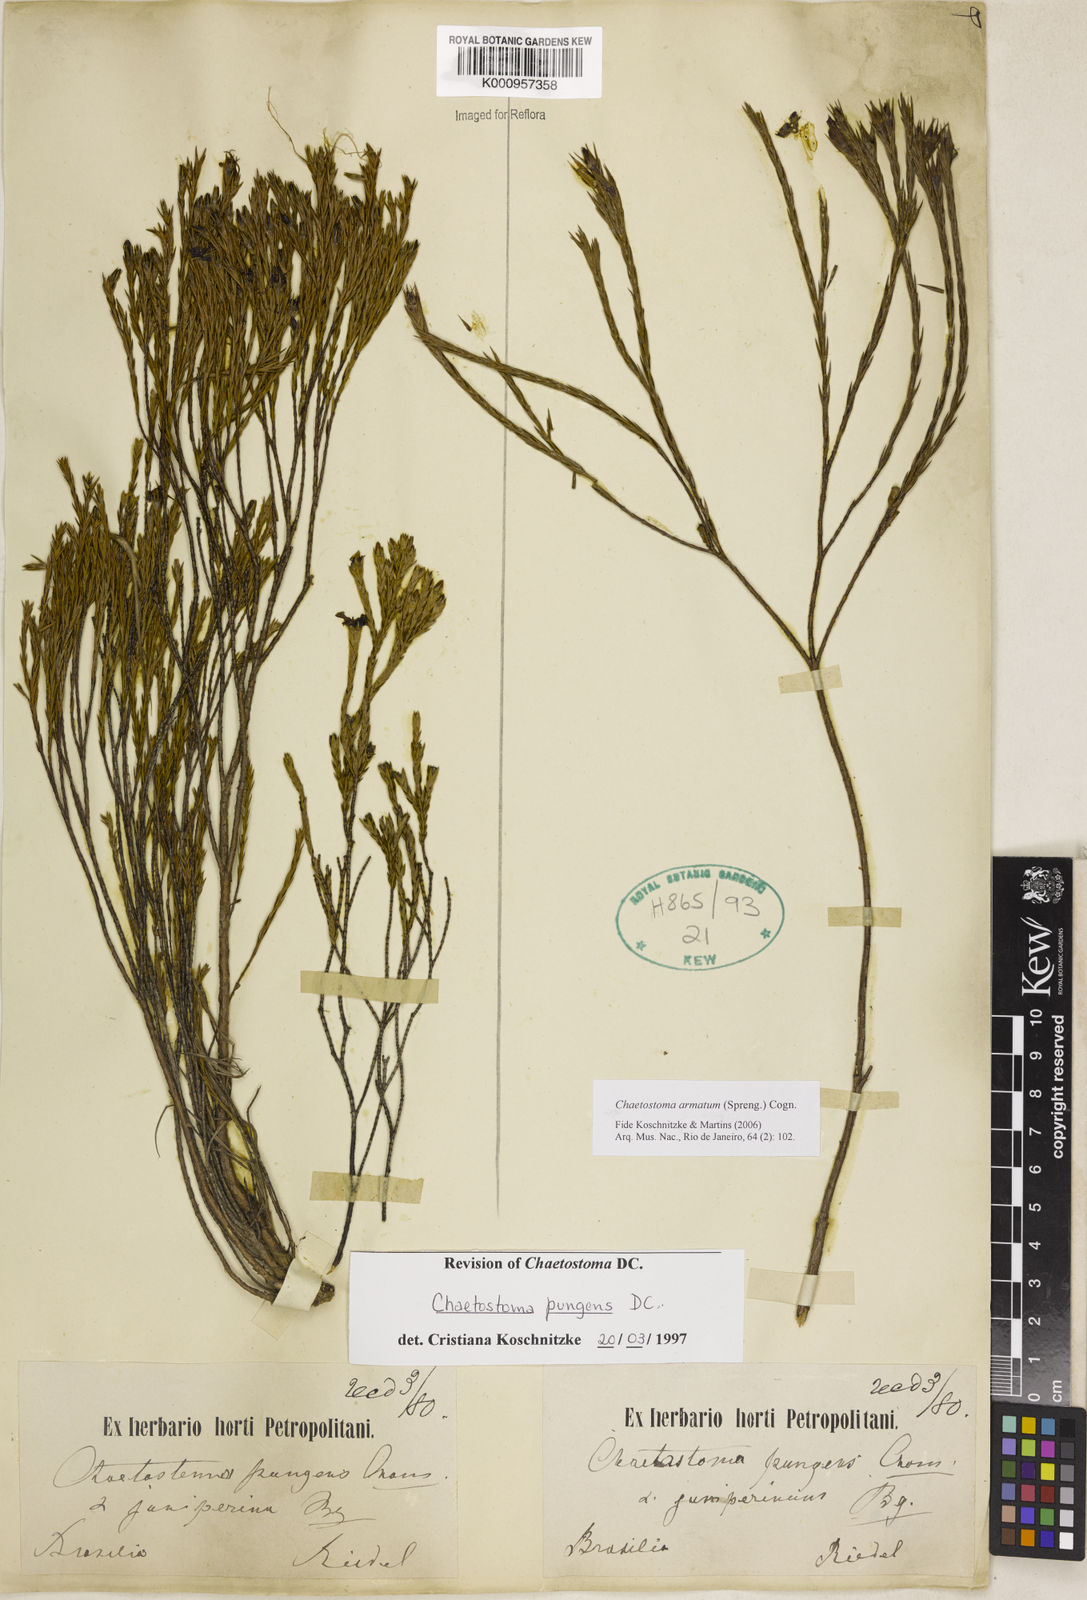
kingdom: Plantae
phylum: Tracheophyta
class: Magnoliopsida
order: Myrtales
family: Melastomataceae
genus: Microlicia
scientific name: Microlicia armata
